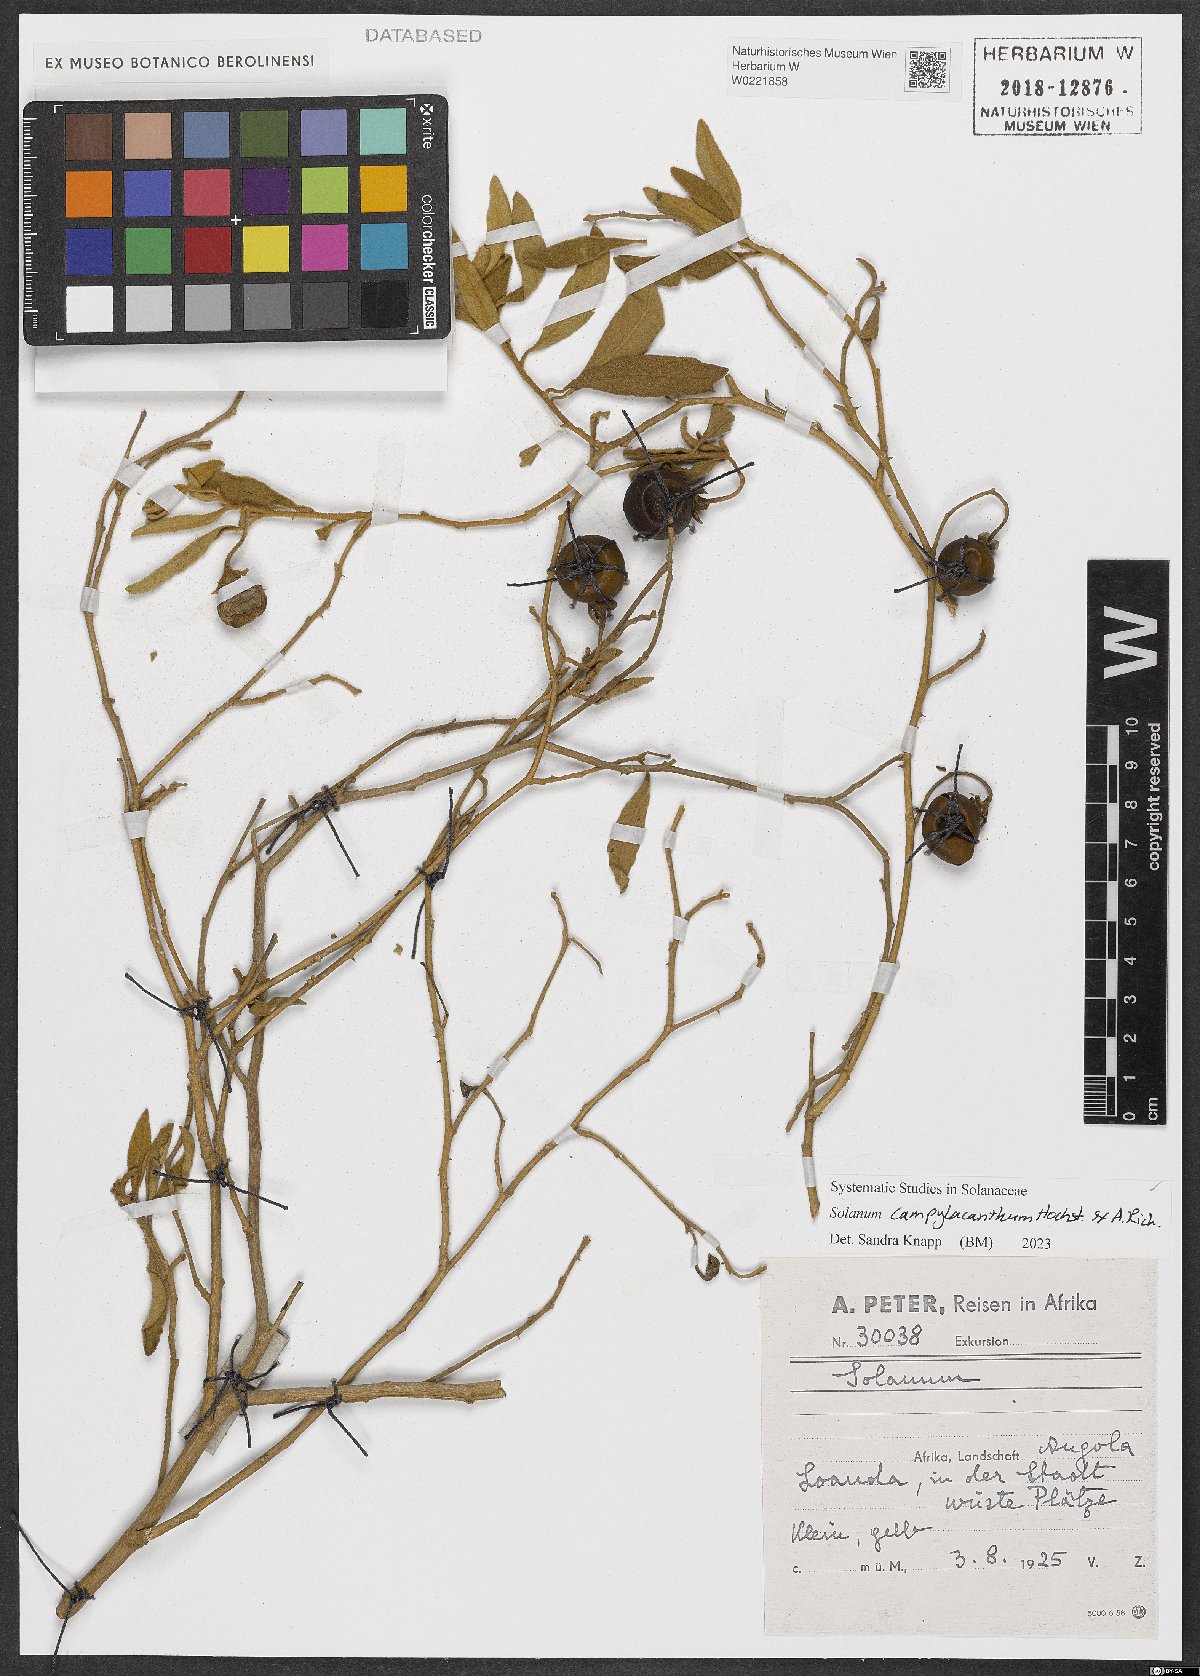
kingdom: Plantae
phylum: Tracheophyta
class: Magnoliopsida
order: Solanales
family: Solanaceae
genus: Solanum
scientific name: Solanum campylacanthum
